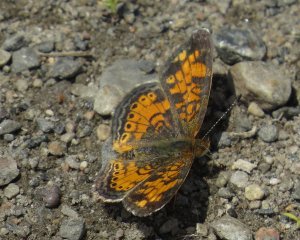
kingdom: Animalia
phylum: Arthropoda
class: Insecta
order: Lepidoptera
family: Nymphalidae
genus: Phyciodes
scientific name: Phyciodes tharos
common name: Pearl Crescent
